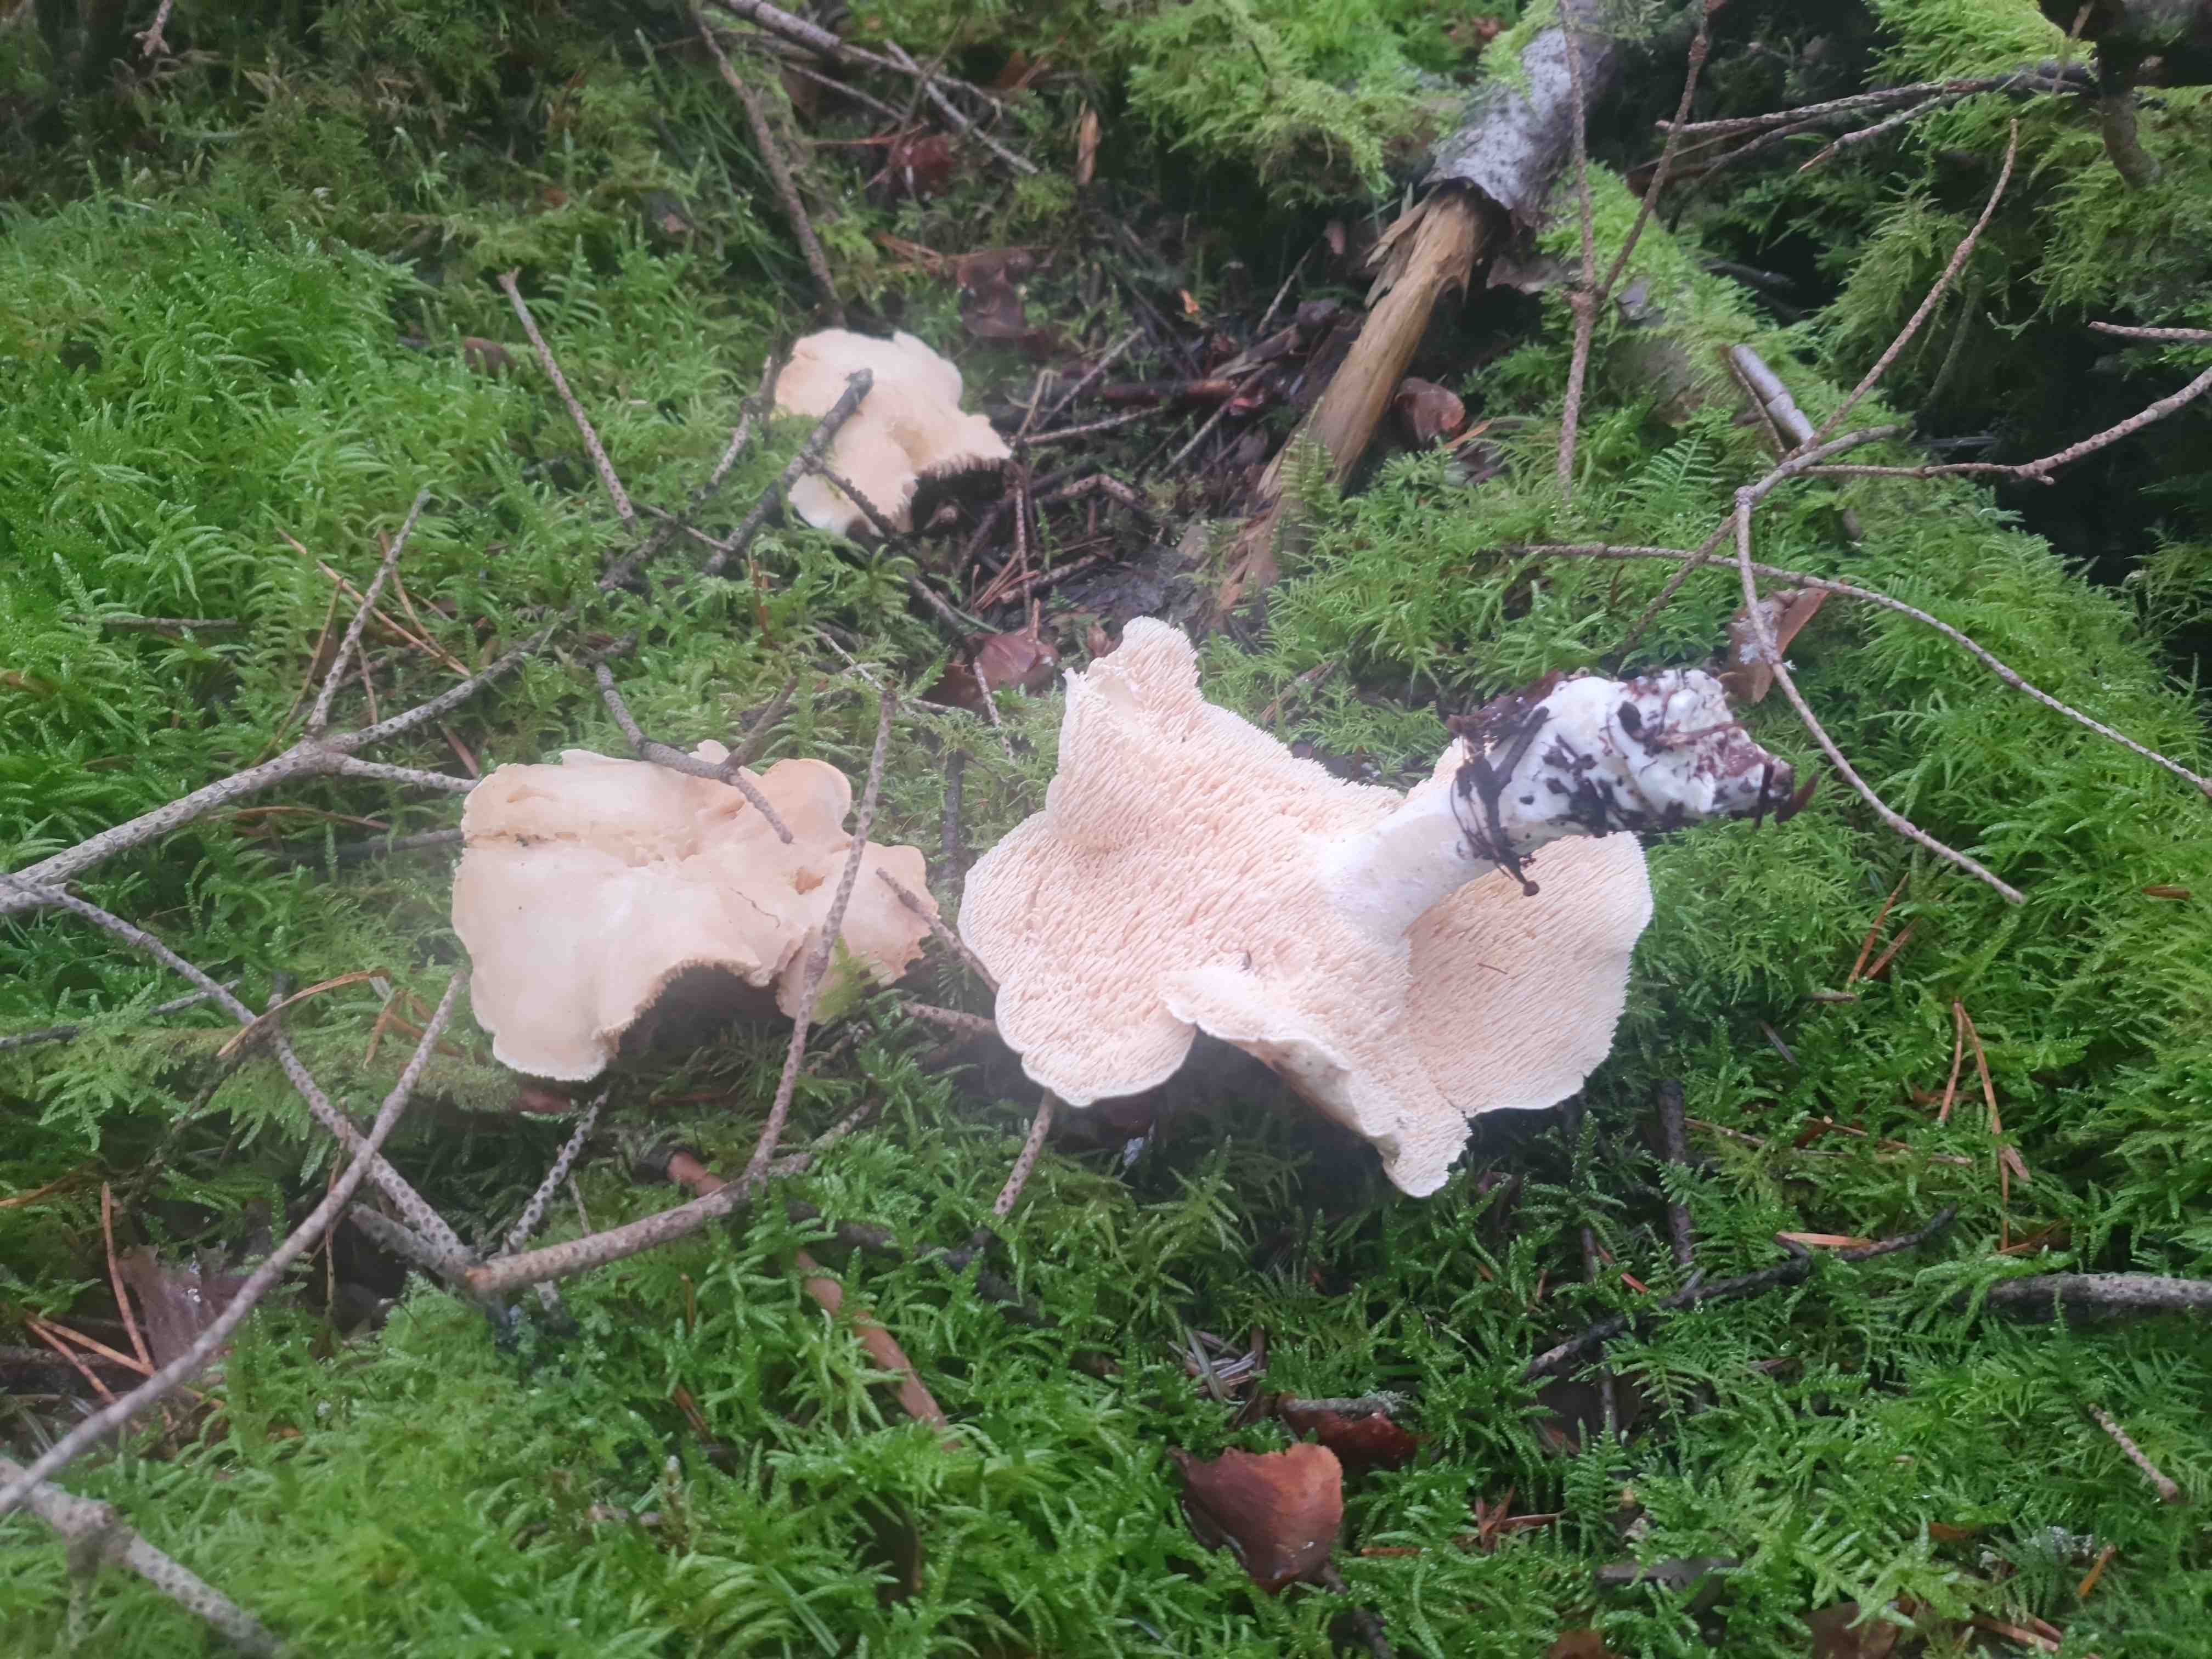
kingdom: Fungi
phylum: Basidiomycota
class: Agaricomycetes
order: Cantharellales
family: Hydnaceae
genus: Hydnum
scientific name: Hydnum
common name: pigsvamp
